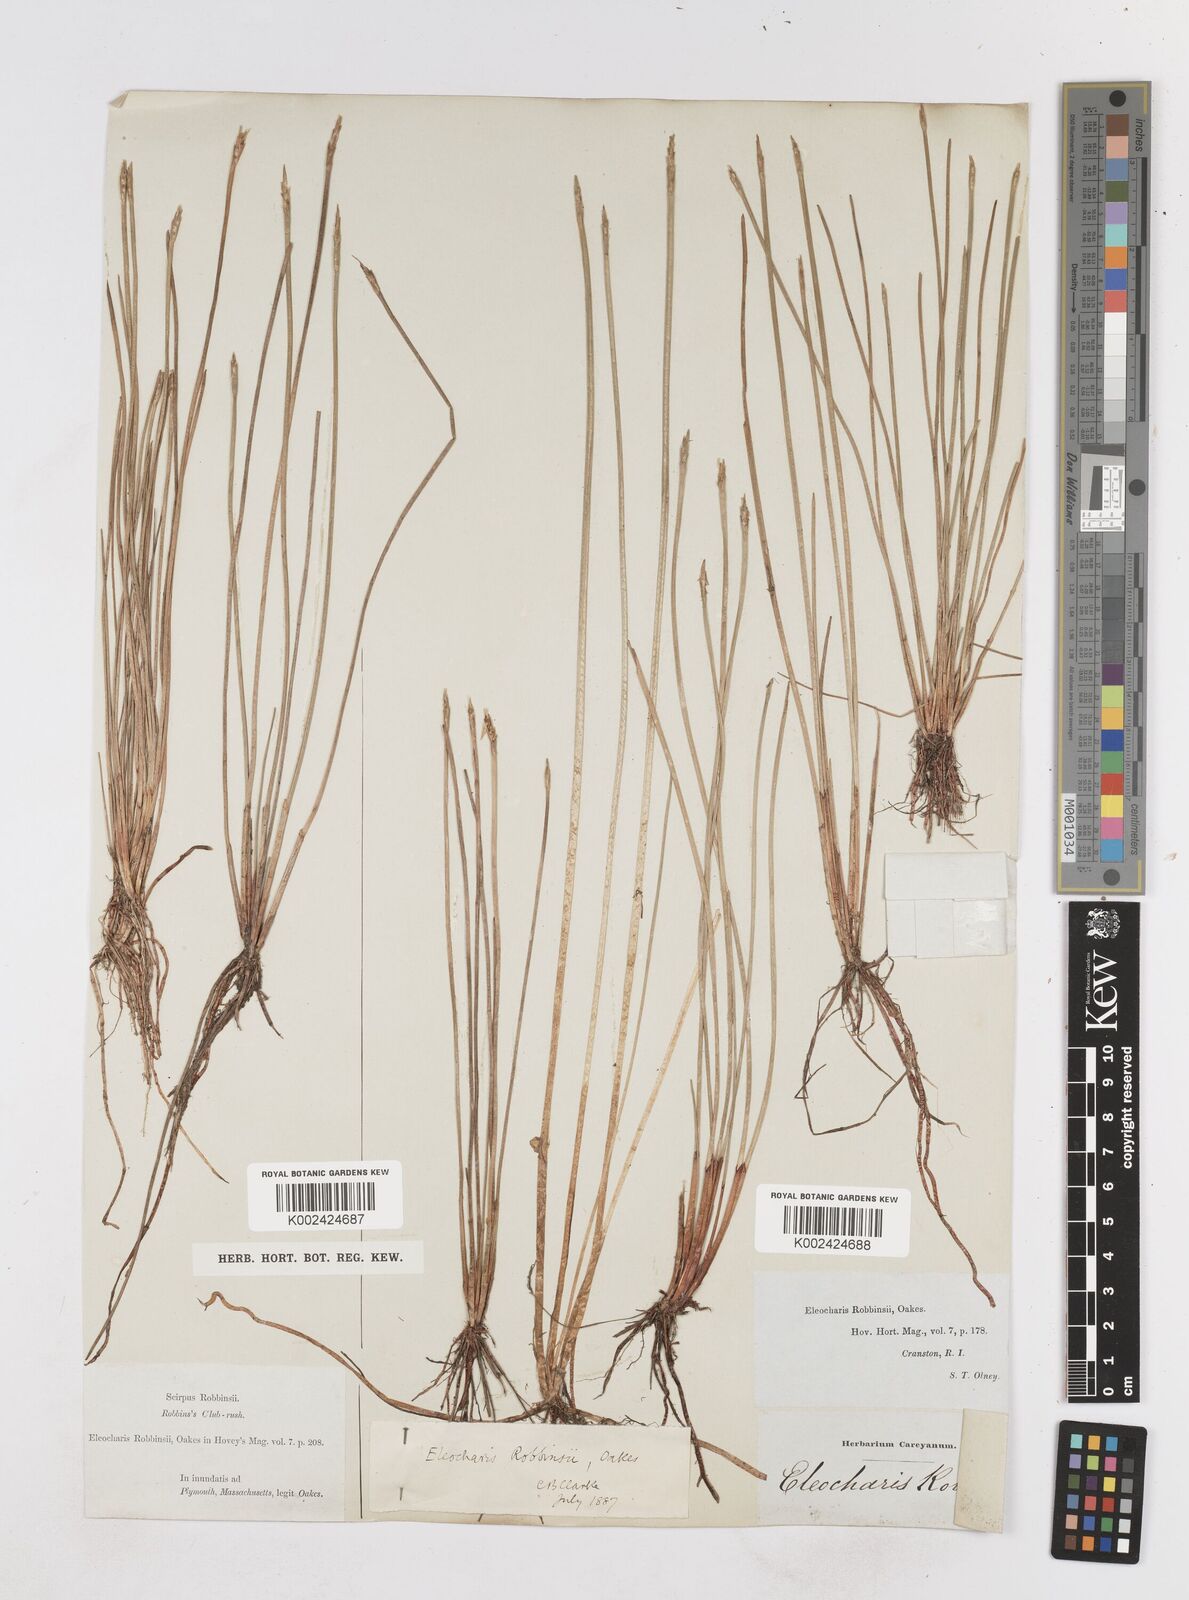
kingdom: Plantae
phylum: Tracheophyta
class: Liliopsida
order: Poales
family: Cyperaceae
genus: Eleocharis
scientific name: Eleocharis robbinsii
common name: Robbins' spikerush
